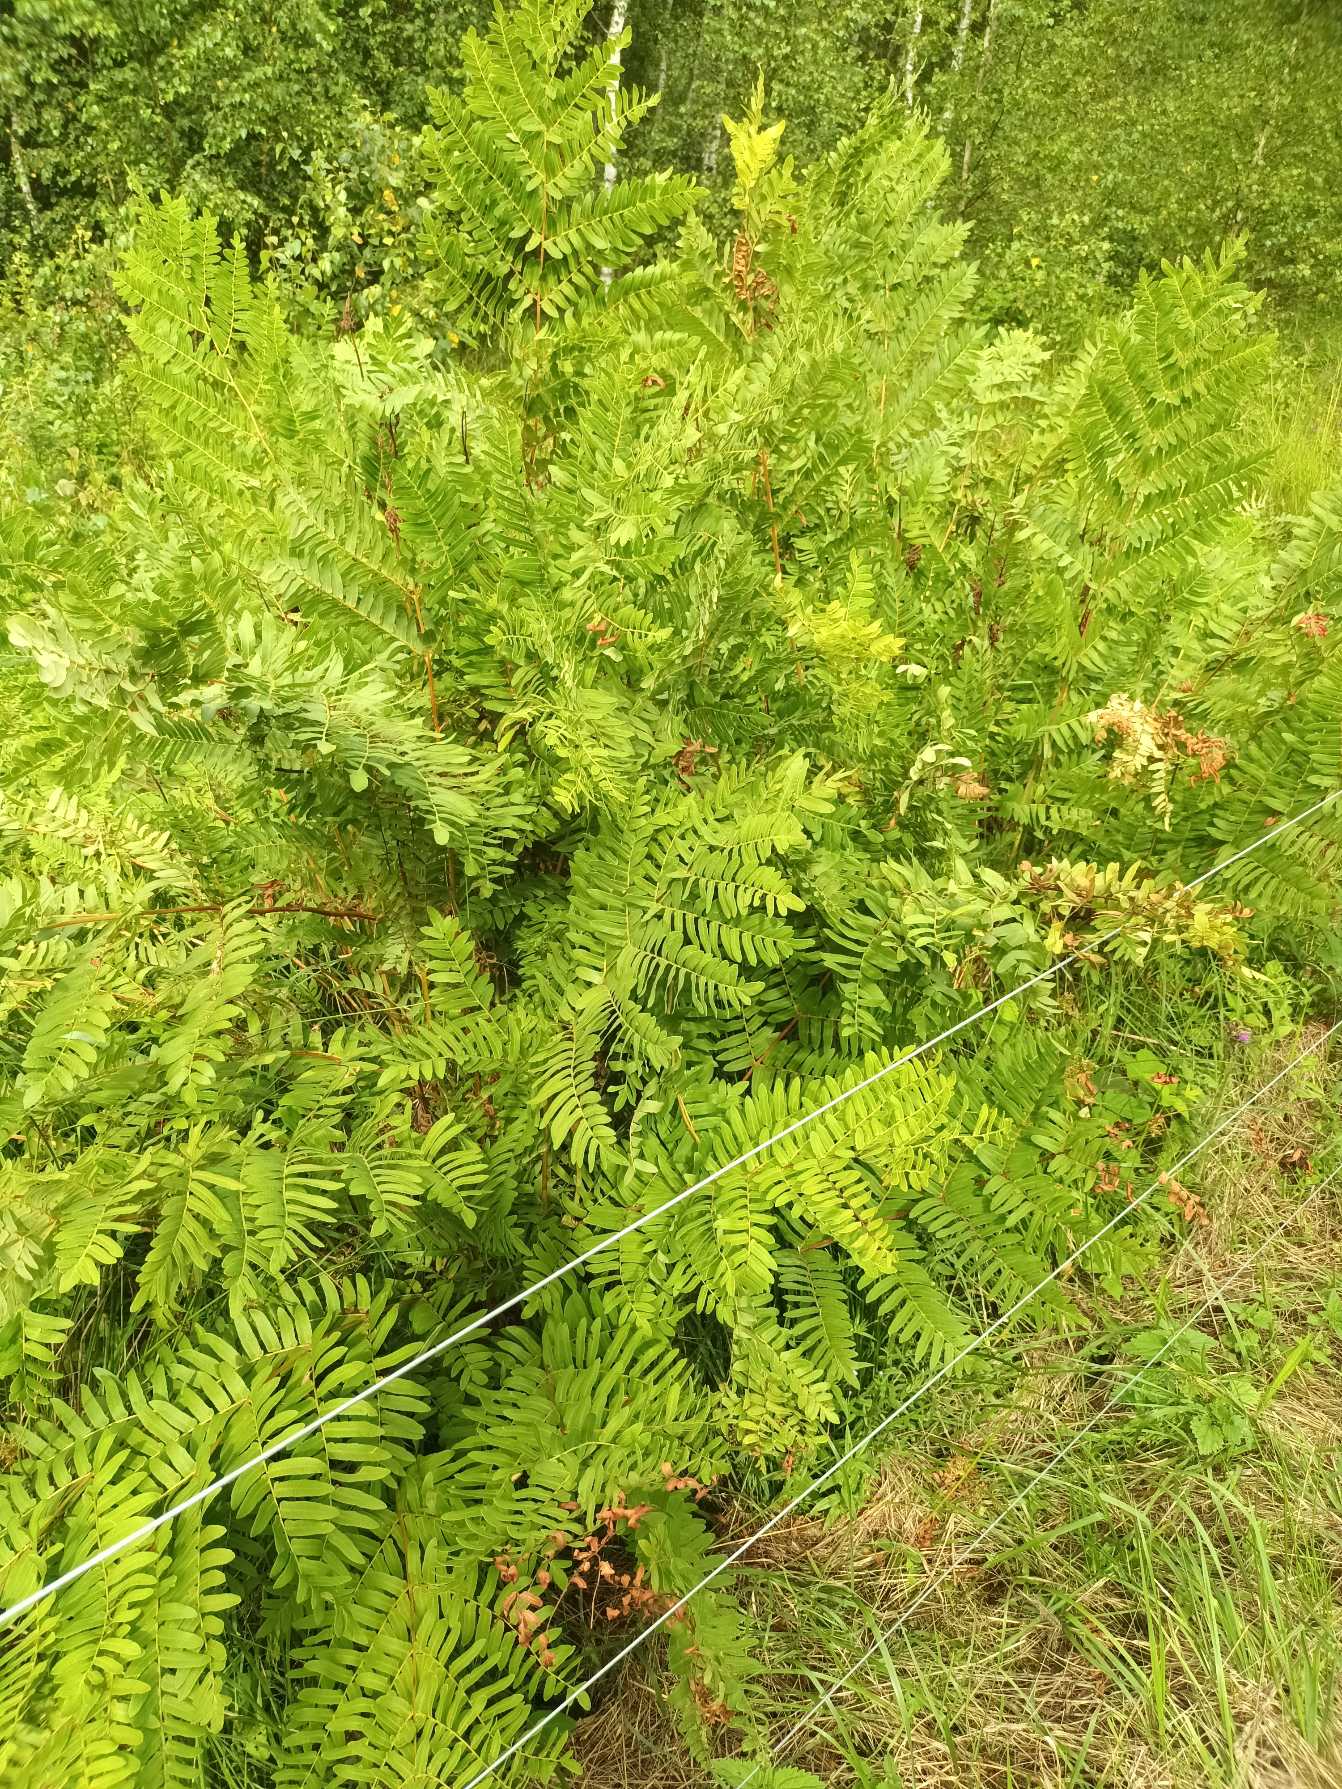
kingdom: Plantae
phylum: Tracheophyta
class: Polypodiopsida
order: Osmundales
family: Osmundaceae
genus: Osmunda
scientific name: Osmunda regalis
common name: Kongebregne
